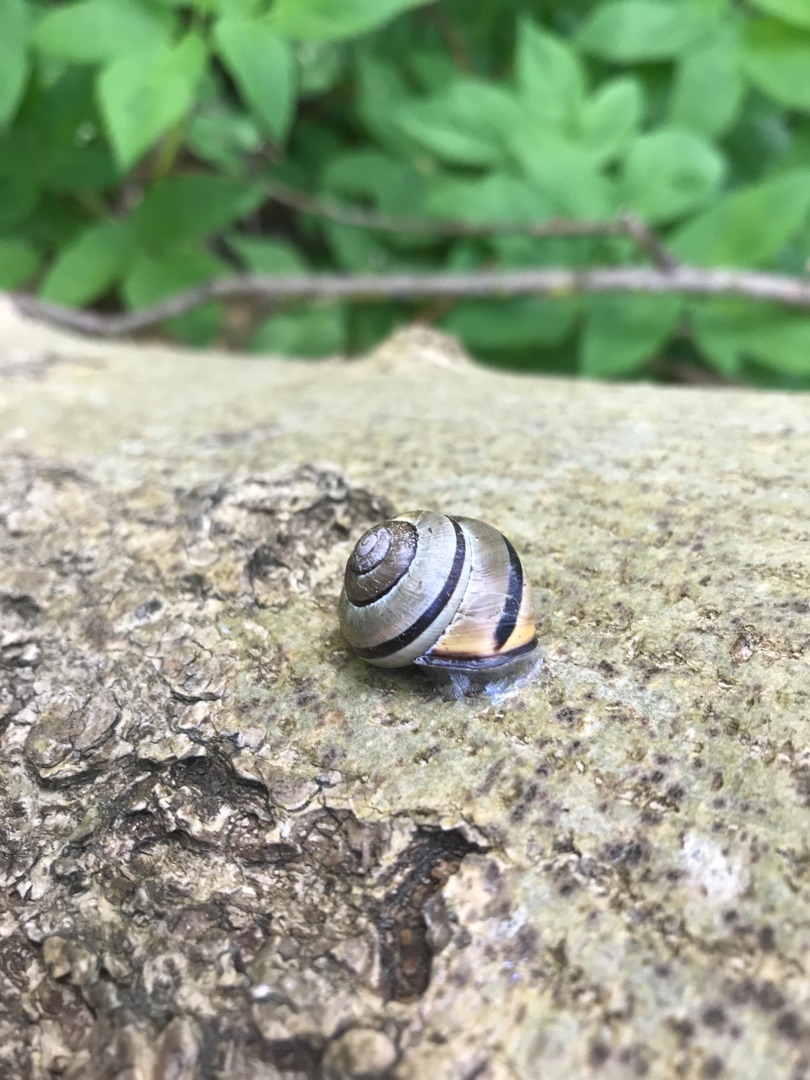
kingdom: Animalia
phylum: Mollusca
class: Gastropoda
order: Stylommatophora
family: Helicidae
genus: Cepaea
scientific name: Cepaea nemoralis
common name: Lundsnegl
